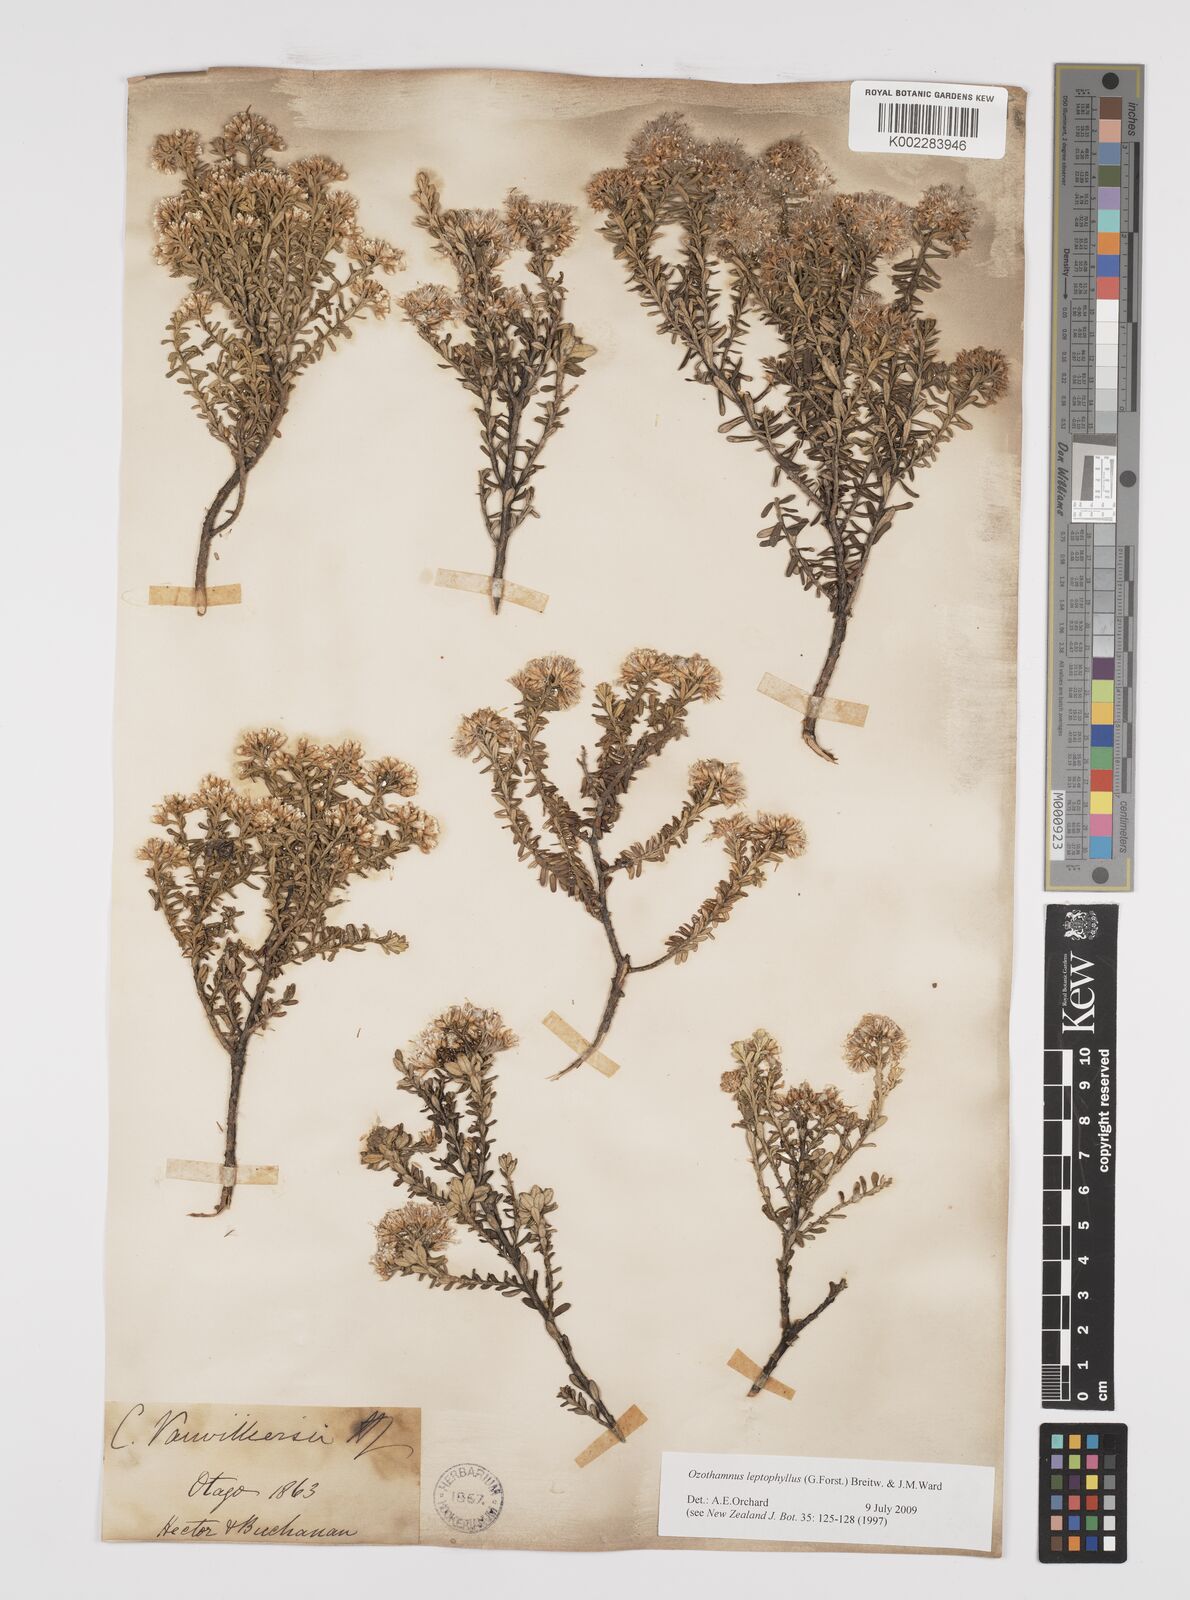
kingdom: Plantae
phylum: Tracheophyta
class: Magnoliopsida
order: Asterales
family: Asteraceae
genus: Ozothamnus
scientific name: Ozothamnus leptophyllus
